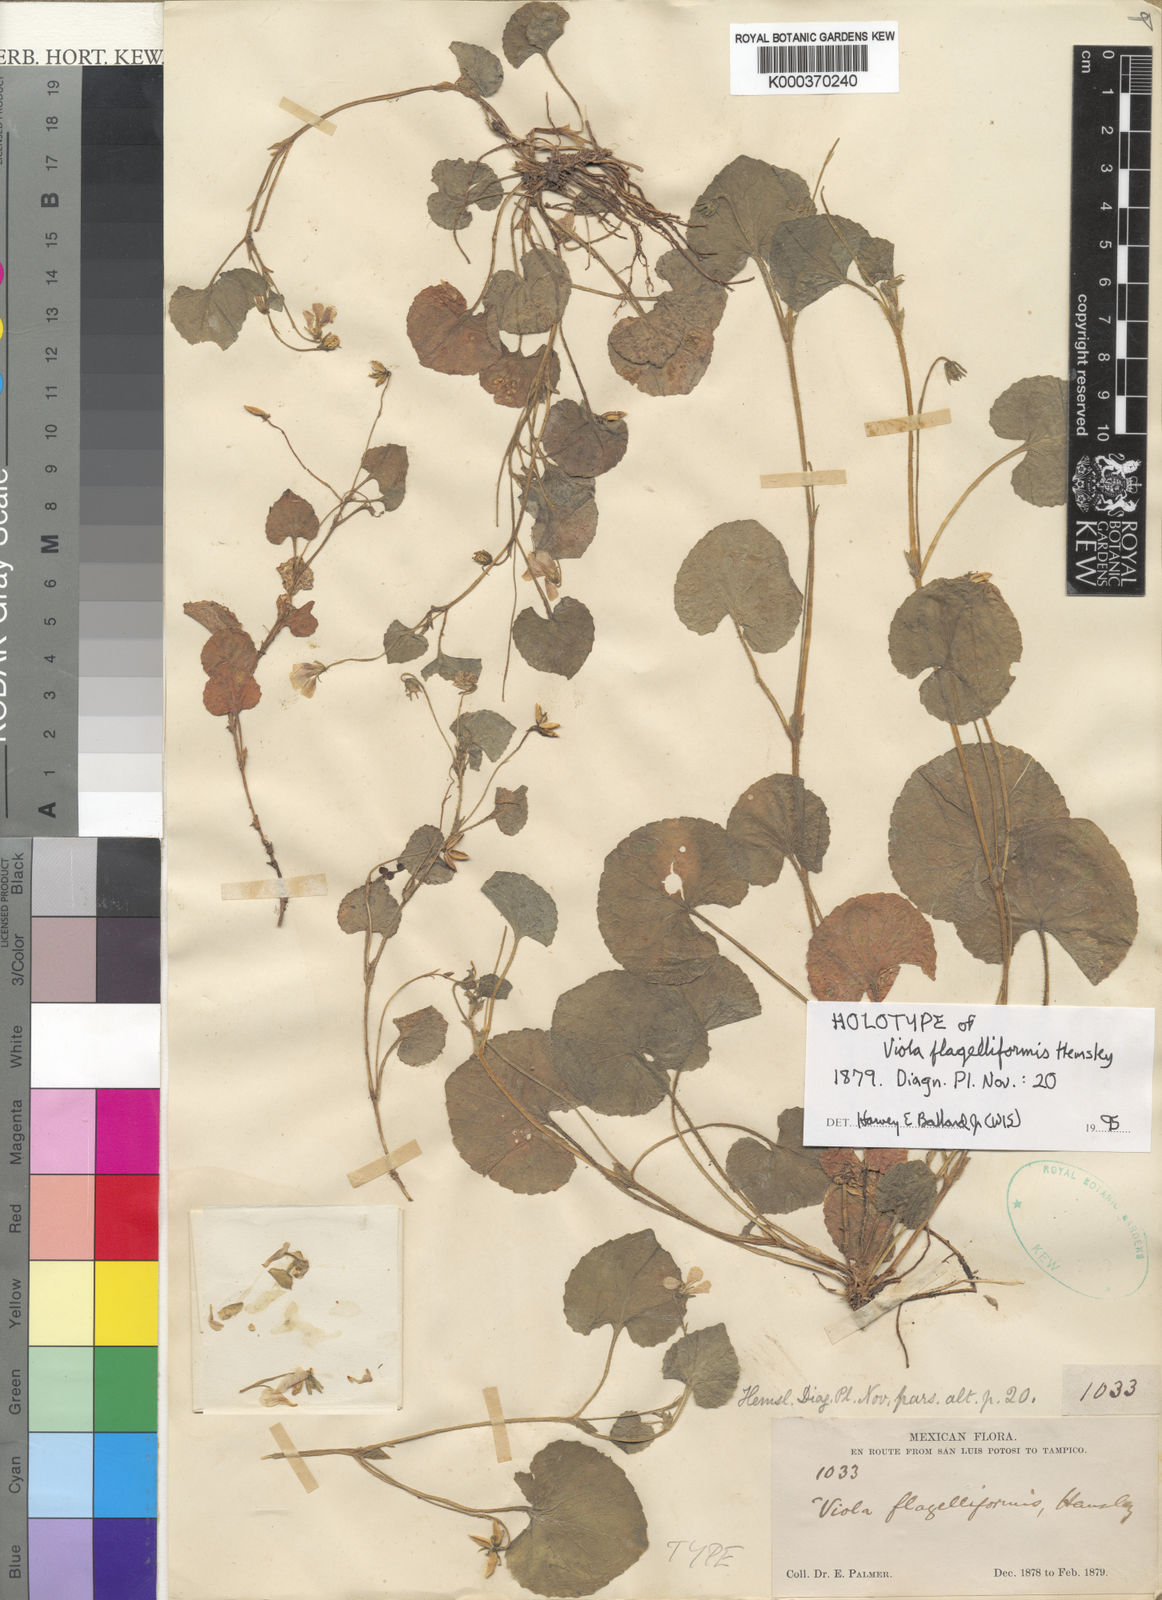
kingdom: Plantae
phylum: Tracheophyta
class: Magnoliopsida
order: Malpighiales
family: Violaceae
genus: Viola
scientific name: Viola flagelliformis
